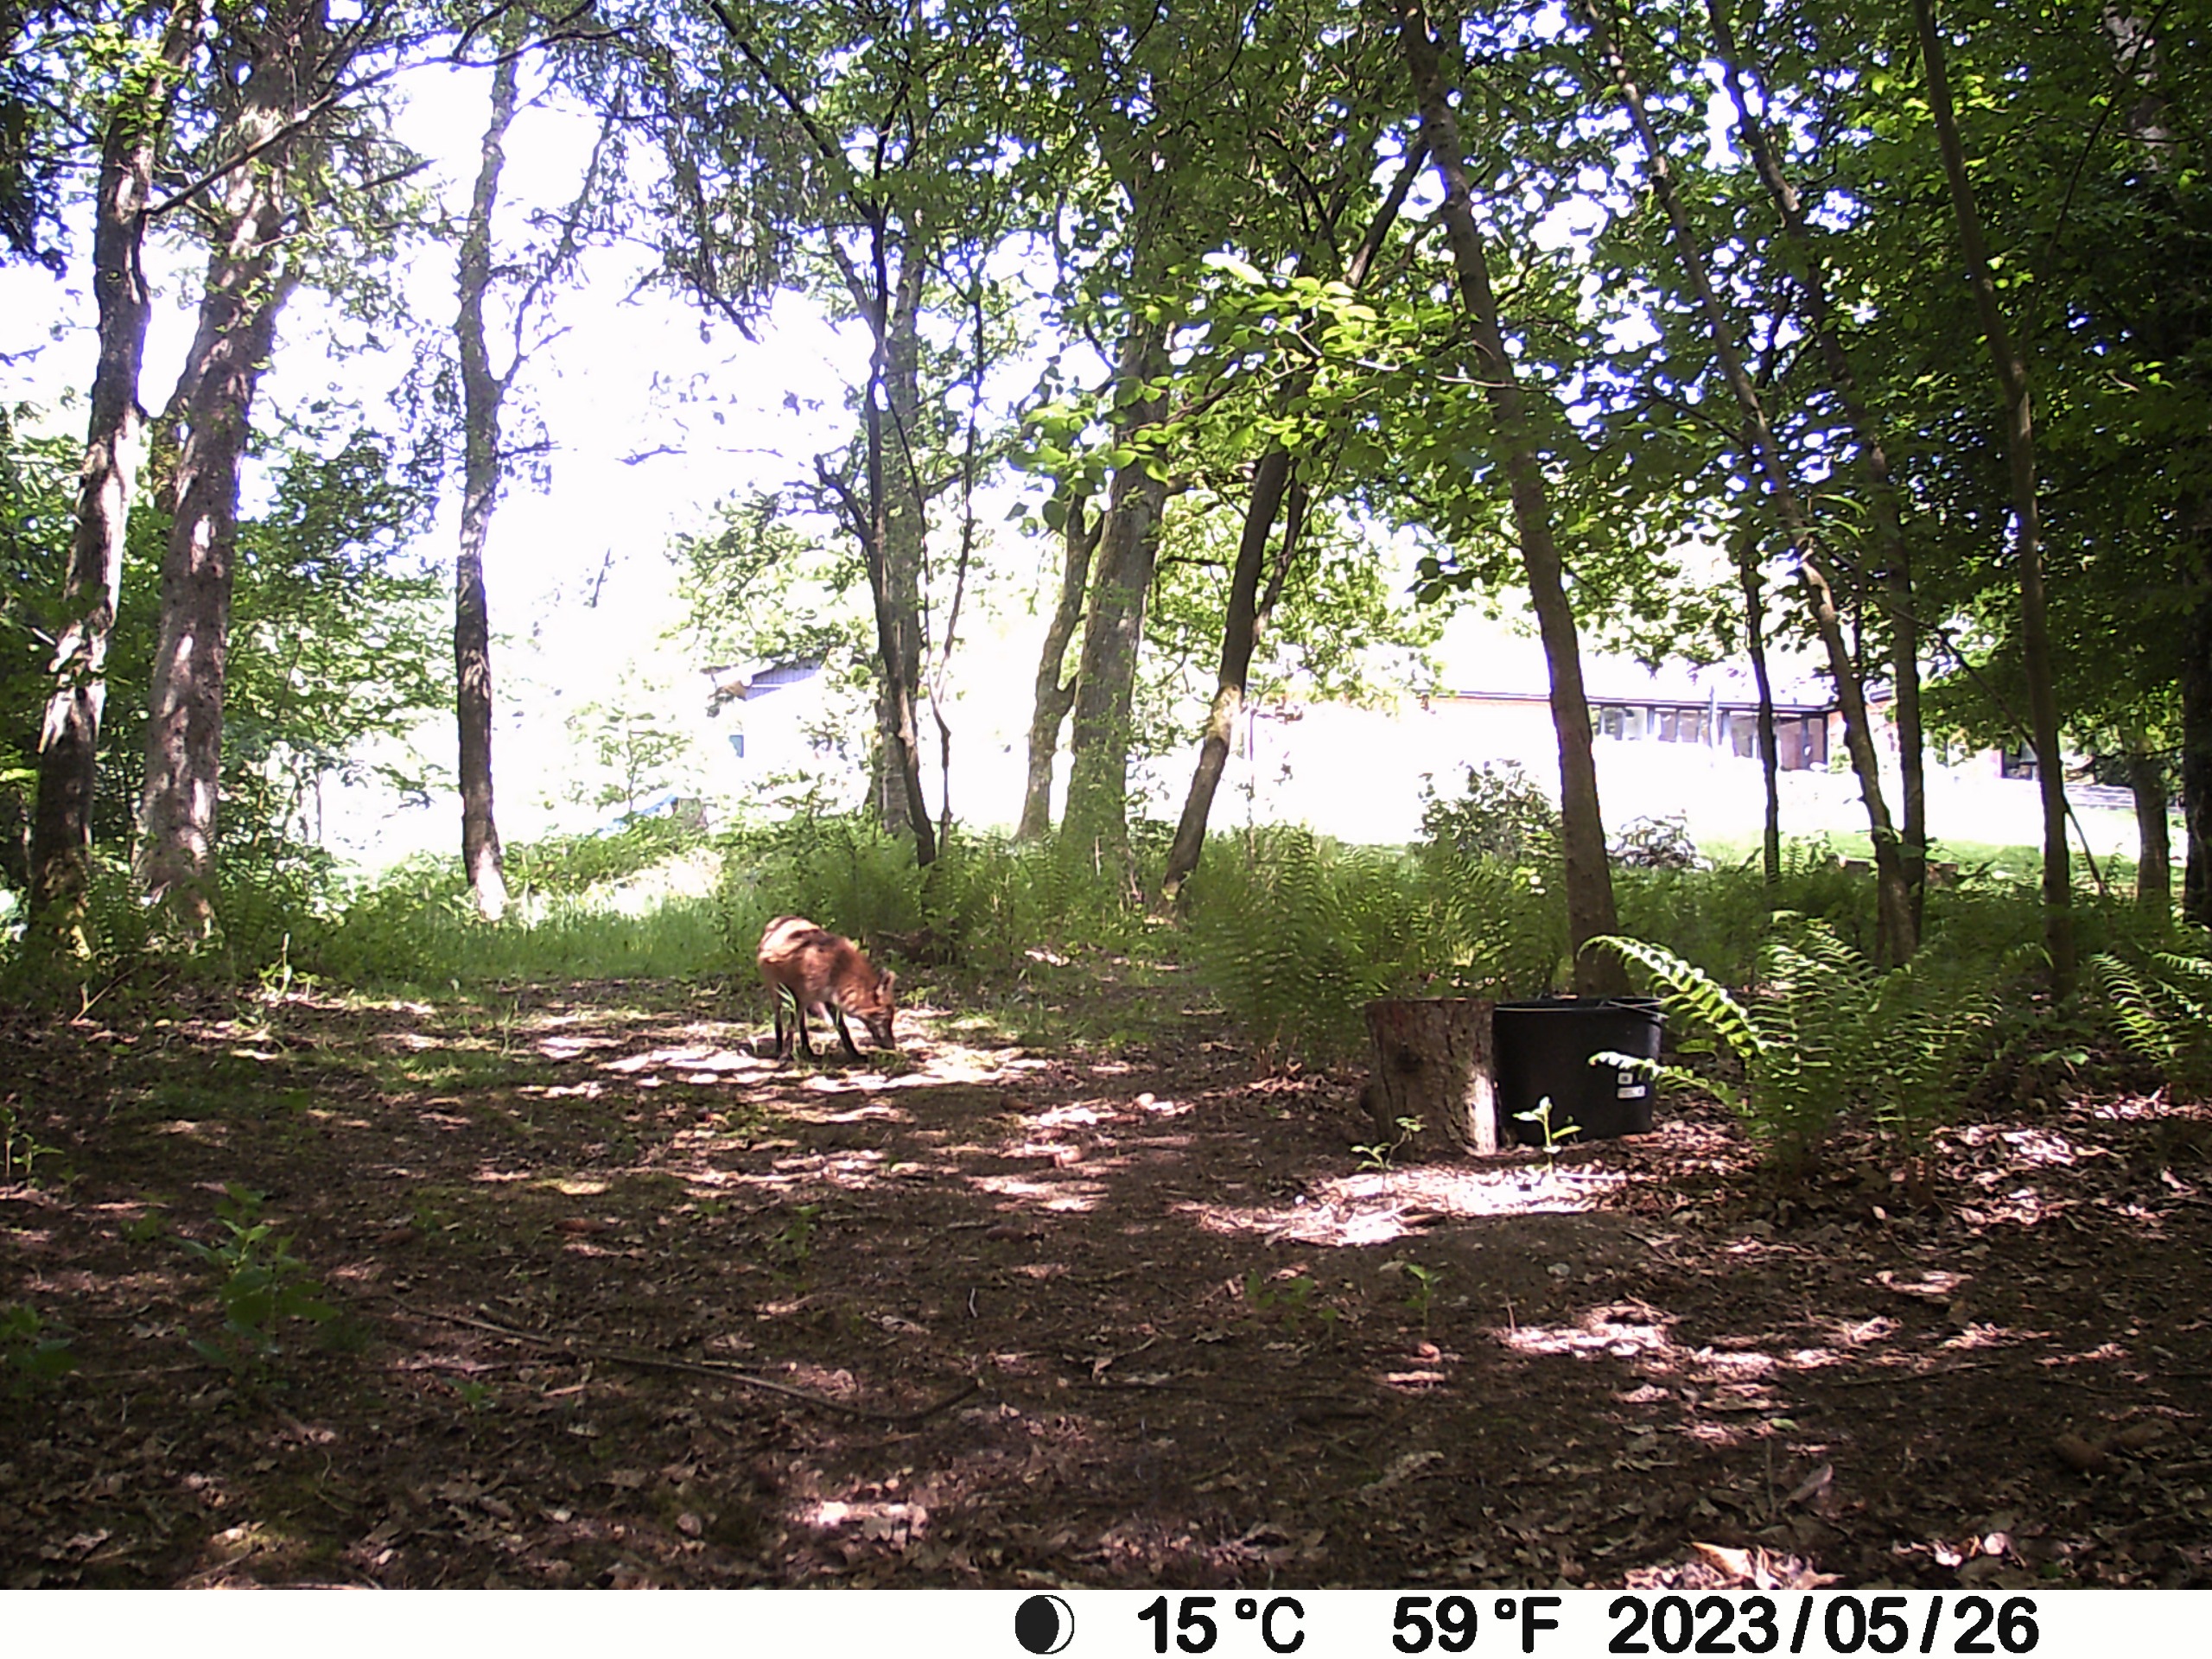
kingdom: Animalia
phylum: Chordata
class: Mammalia
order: Carnivora
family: Canidae
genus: Vulpes
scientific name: Vulpes vulpes
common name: Ræv
